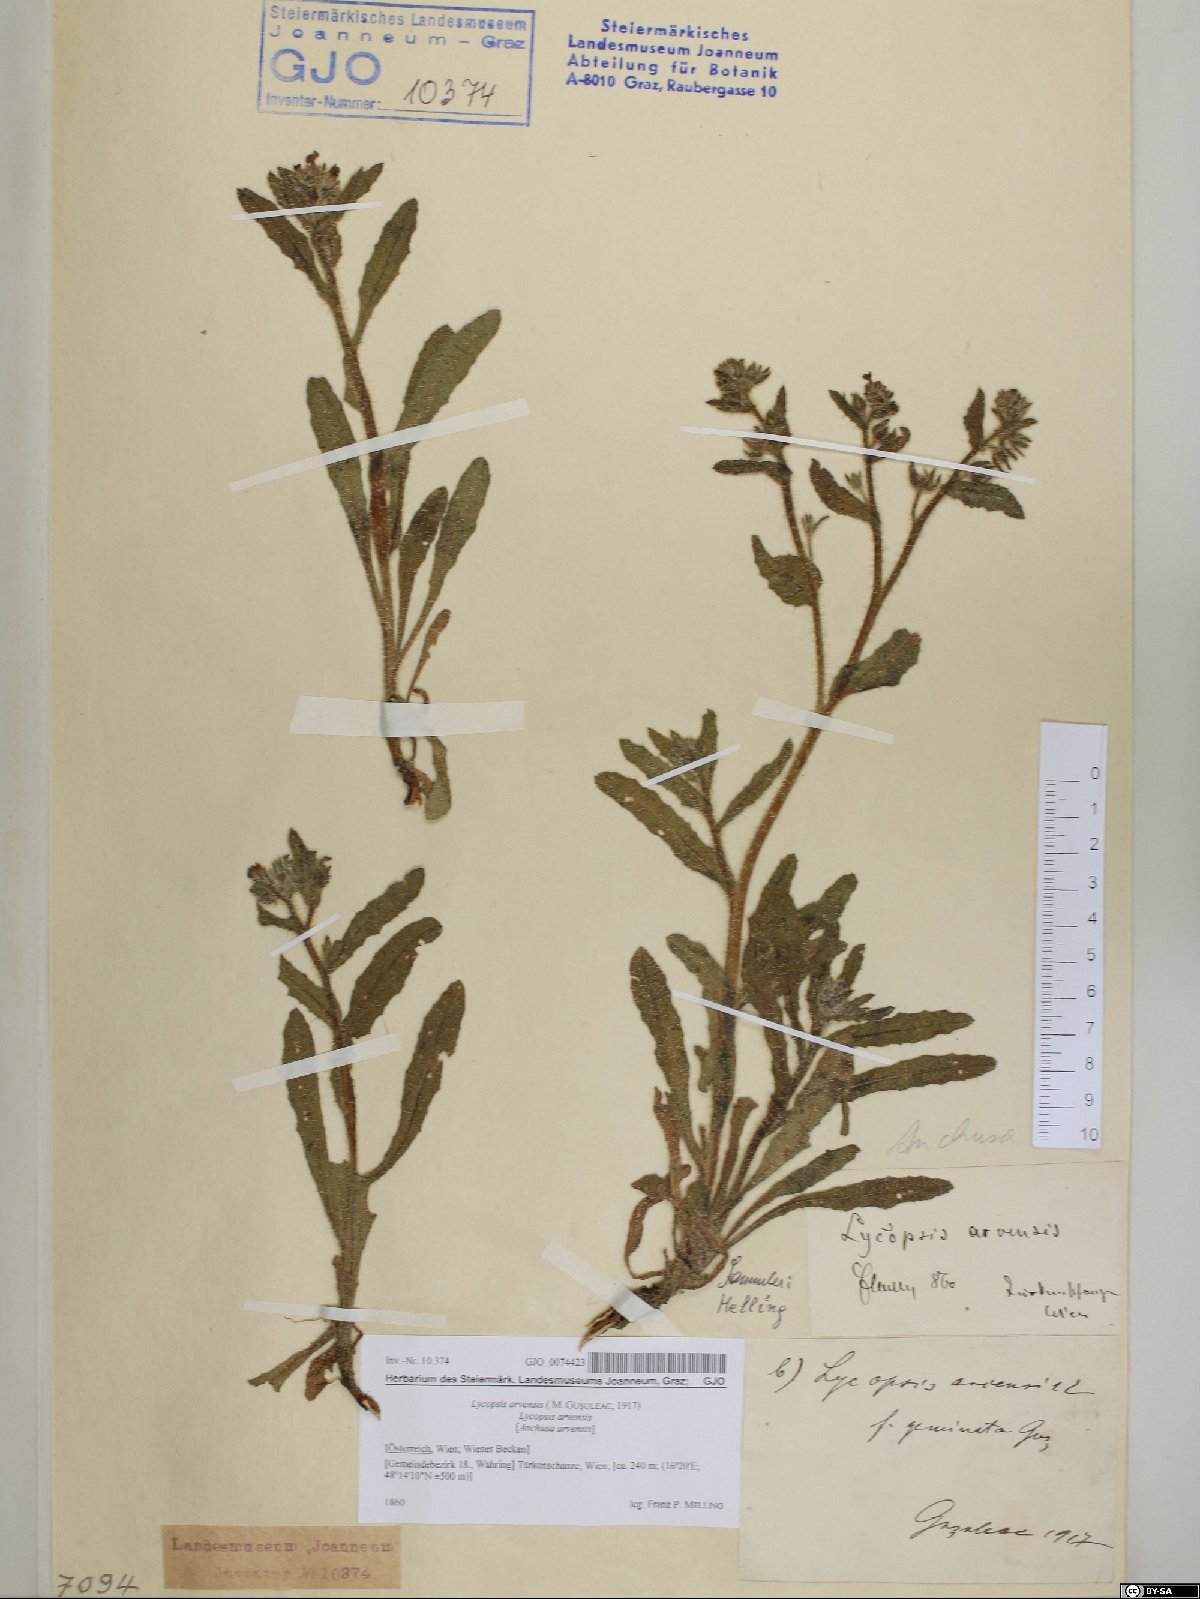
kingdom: Plantae
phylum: Tracheophyta
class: Magnoliopsida
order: Boraginales
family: Boraginaceae
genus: Lycopsis
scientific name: Lycopsis arvensis
